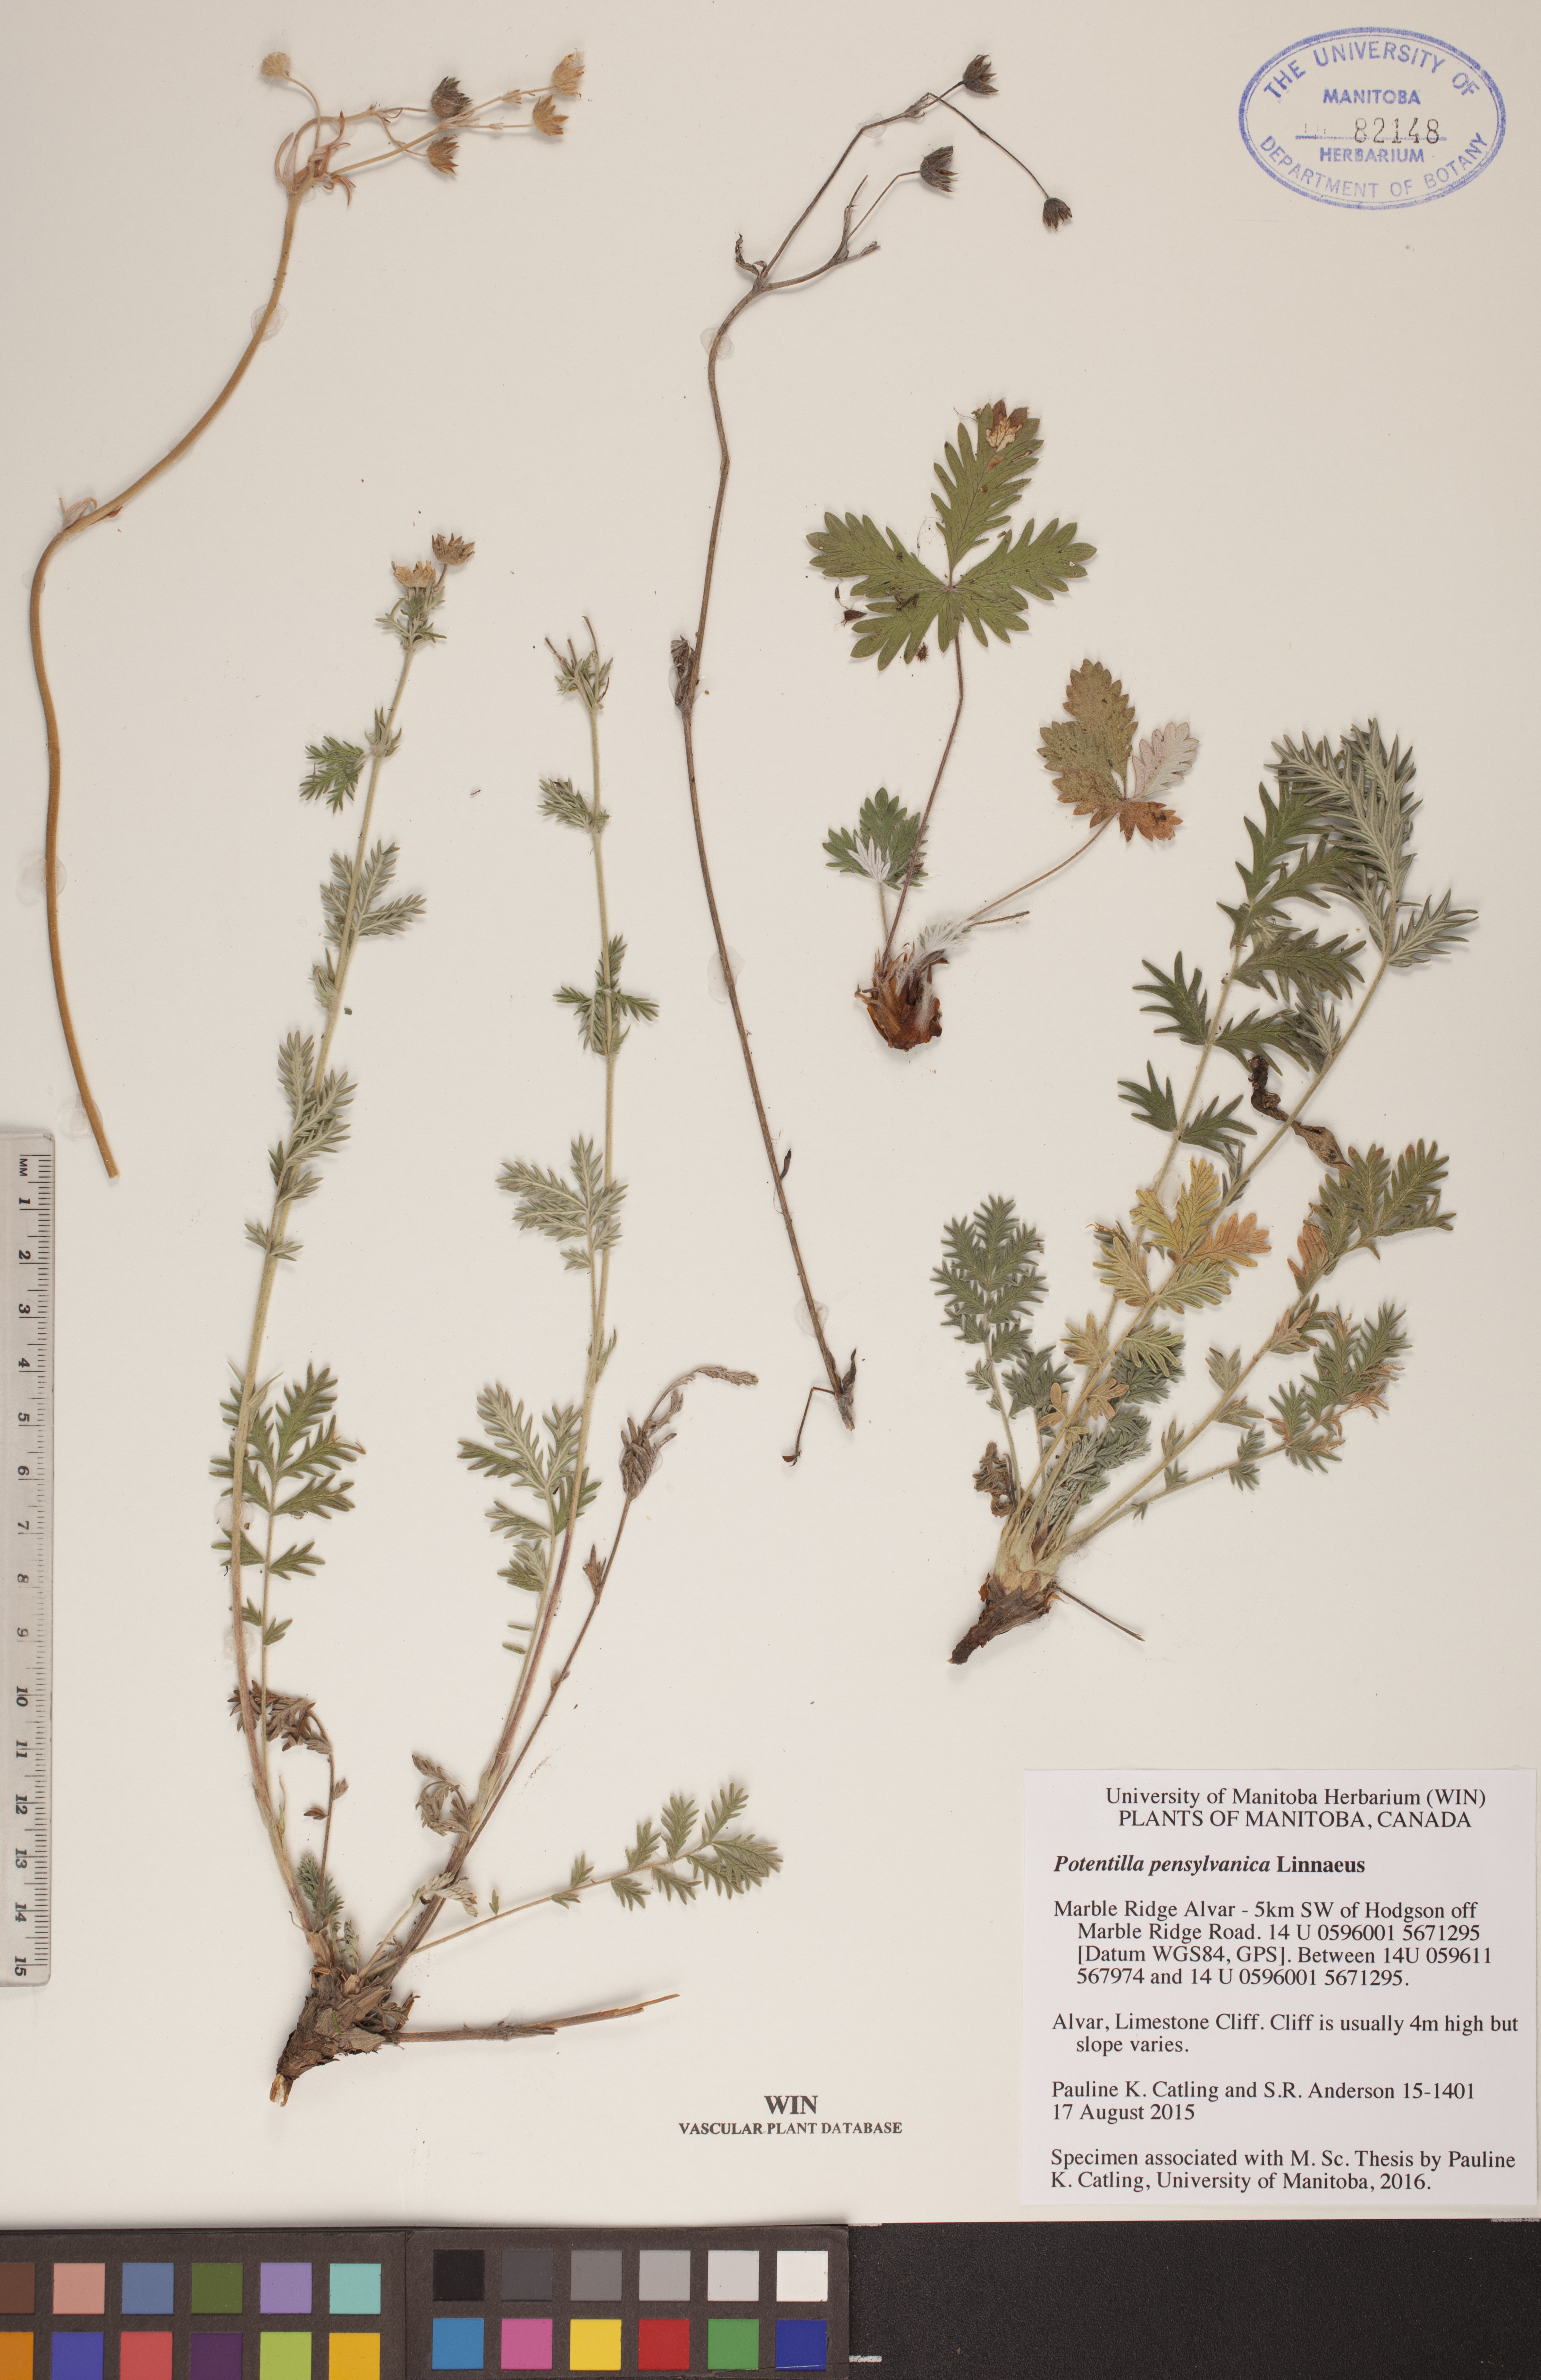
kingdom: Plantae
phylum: Tracheophyta
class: Magnoliopsida
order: Rosales
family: Rosaceae
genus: Potentilla
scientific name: Potentilla pensylvanica
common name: Pennsylvania cinquefoil
